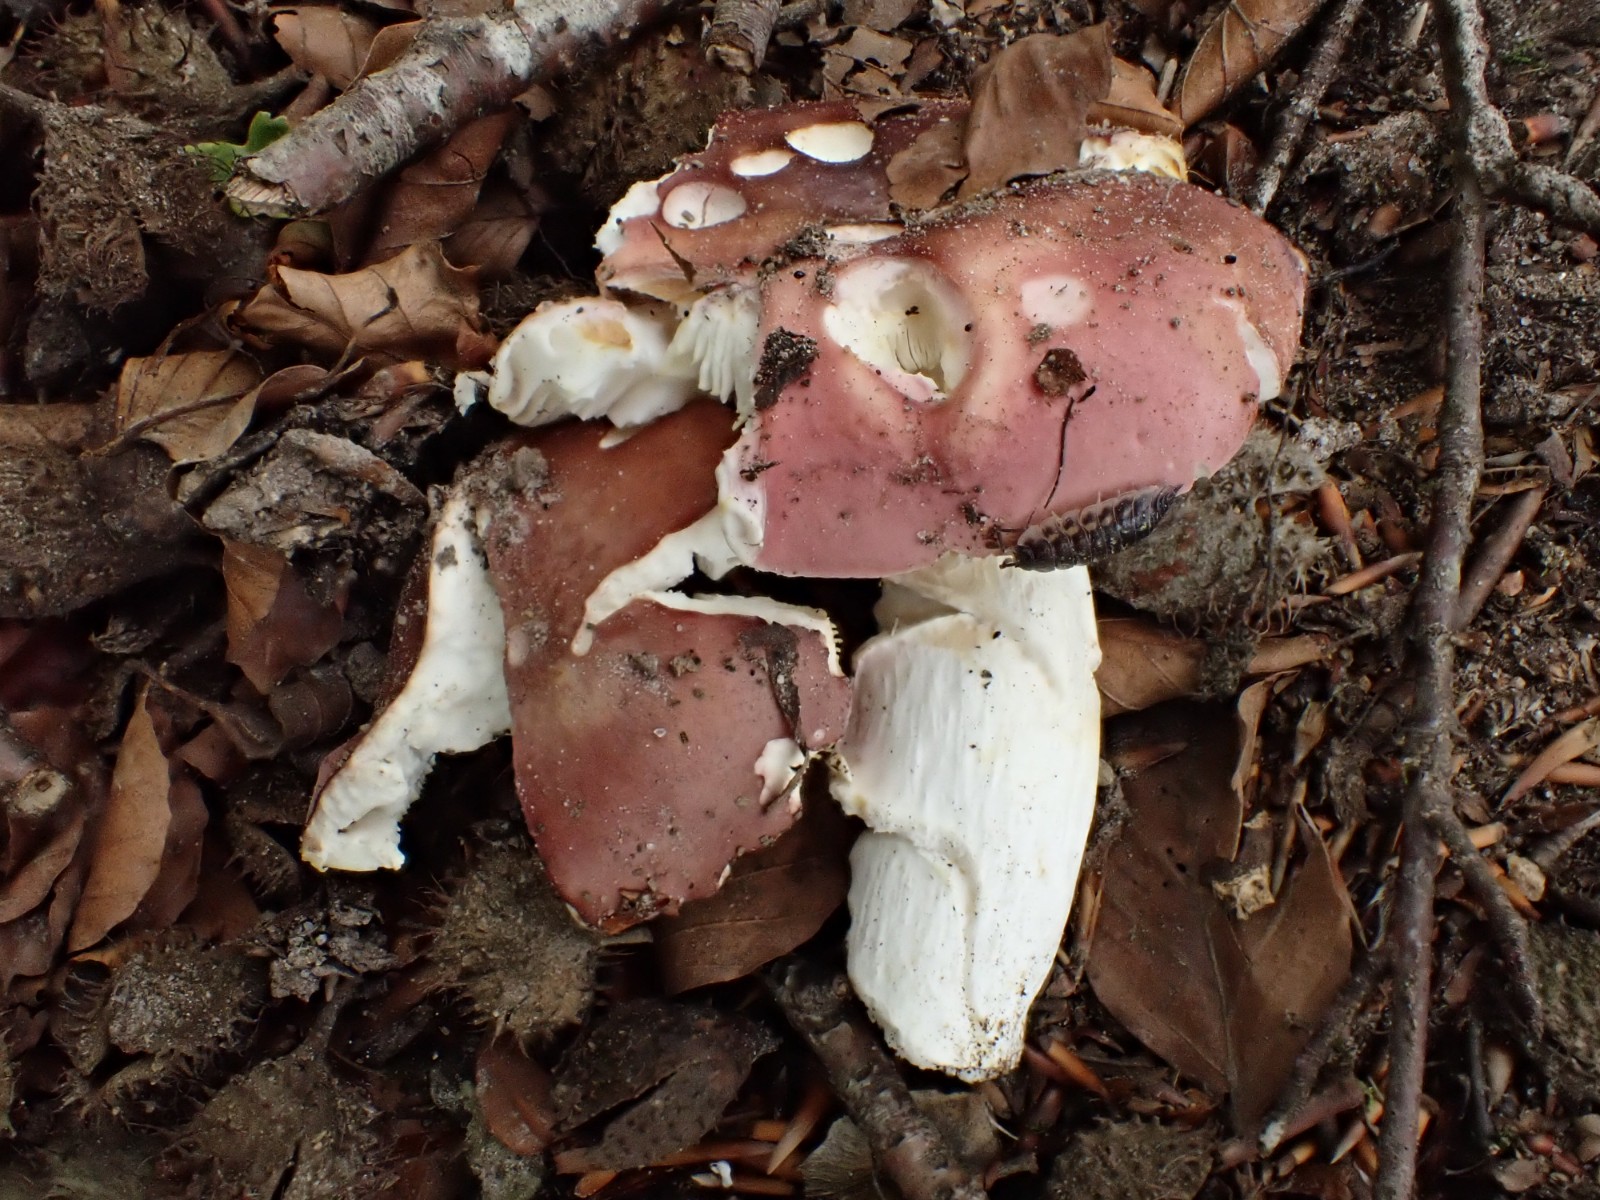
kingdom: Fungi
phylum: Basidiomycota
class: Agaricomycetes
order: Russulales
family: Russulaceae
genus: Russula
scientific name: Russula vesca
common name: spiselig skørhat
